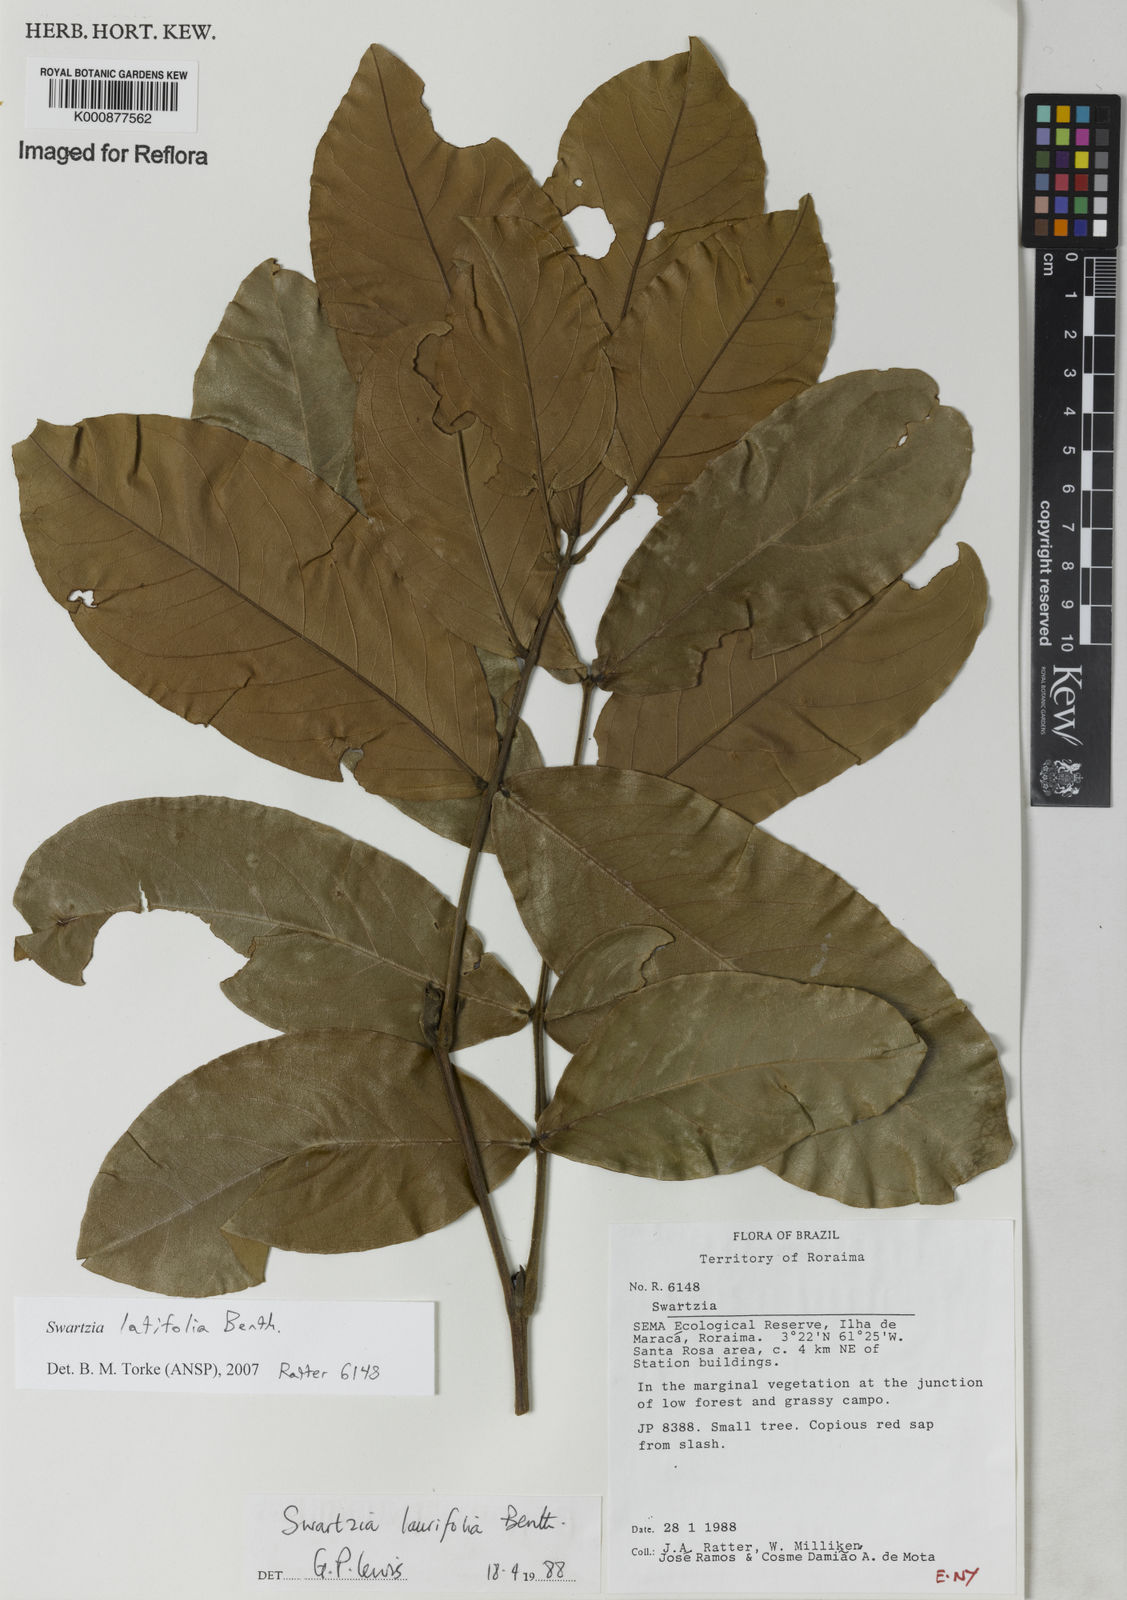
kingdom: Plantae
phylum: Tracheophyta
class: Magnoliopsida
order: Fabales
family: Fabaceae
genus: Swartzia
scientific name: Swartzia latifolia
